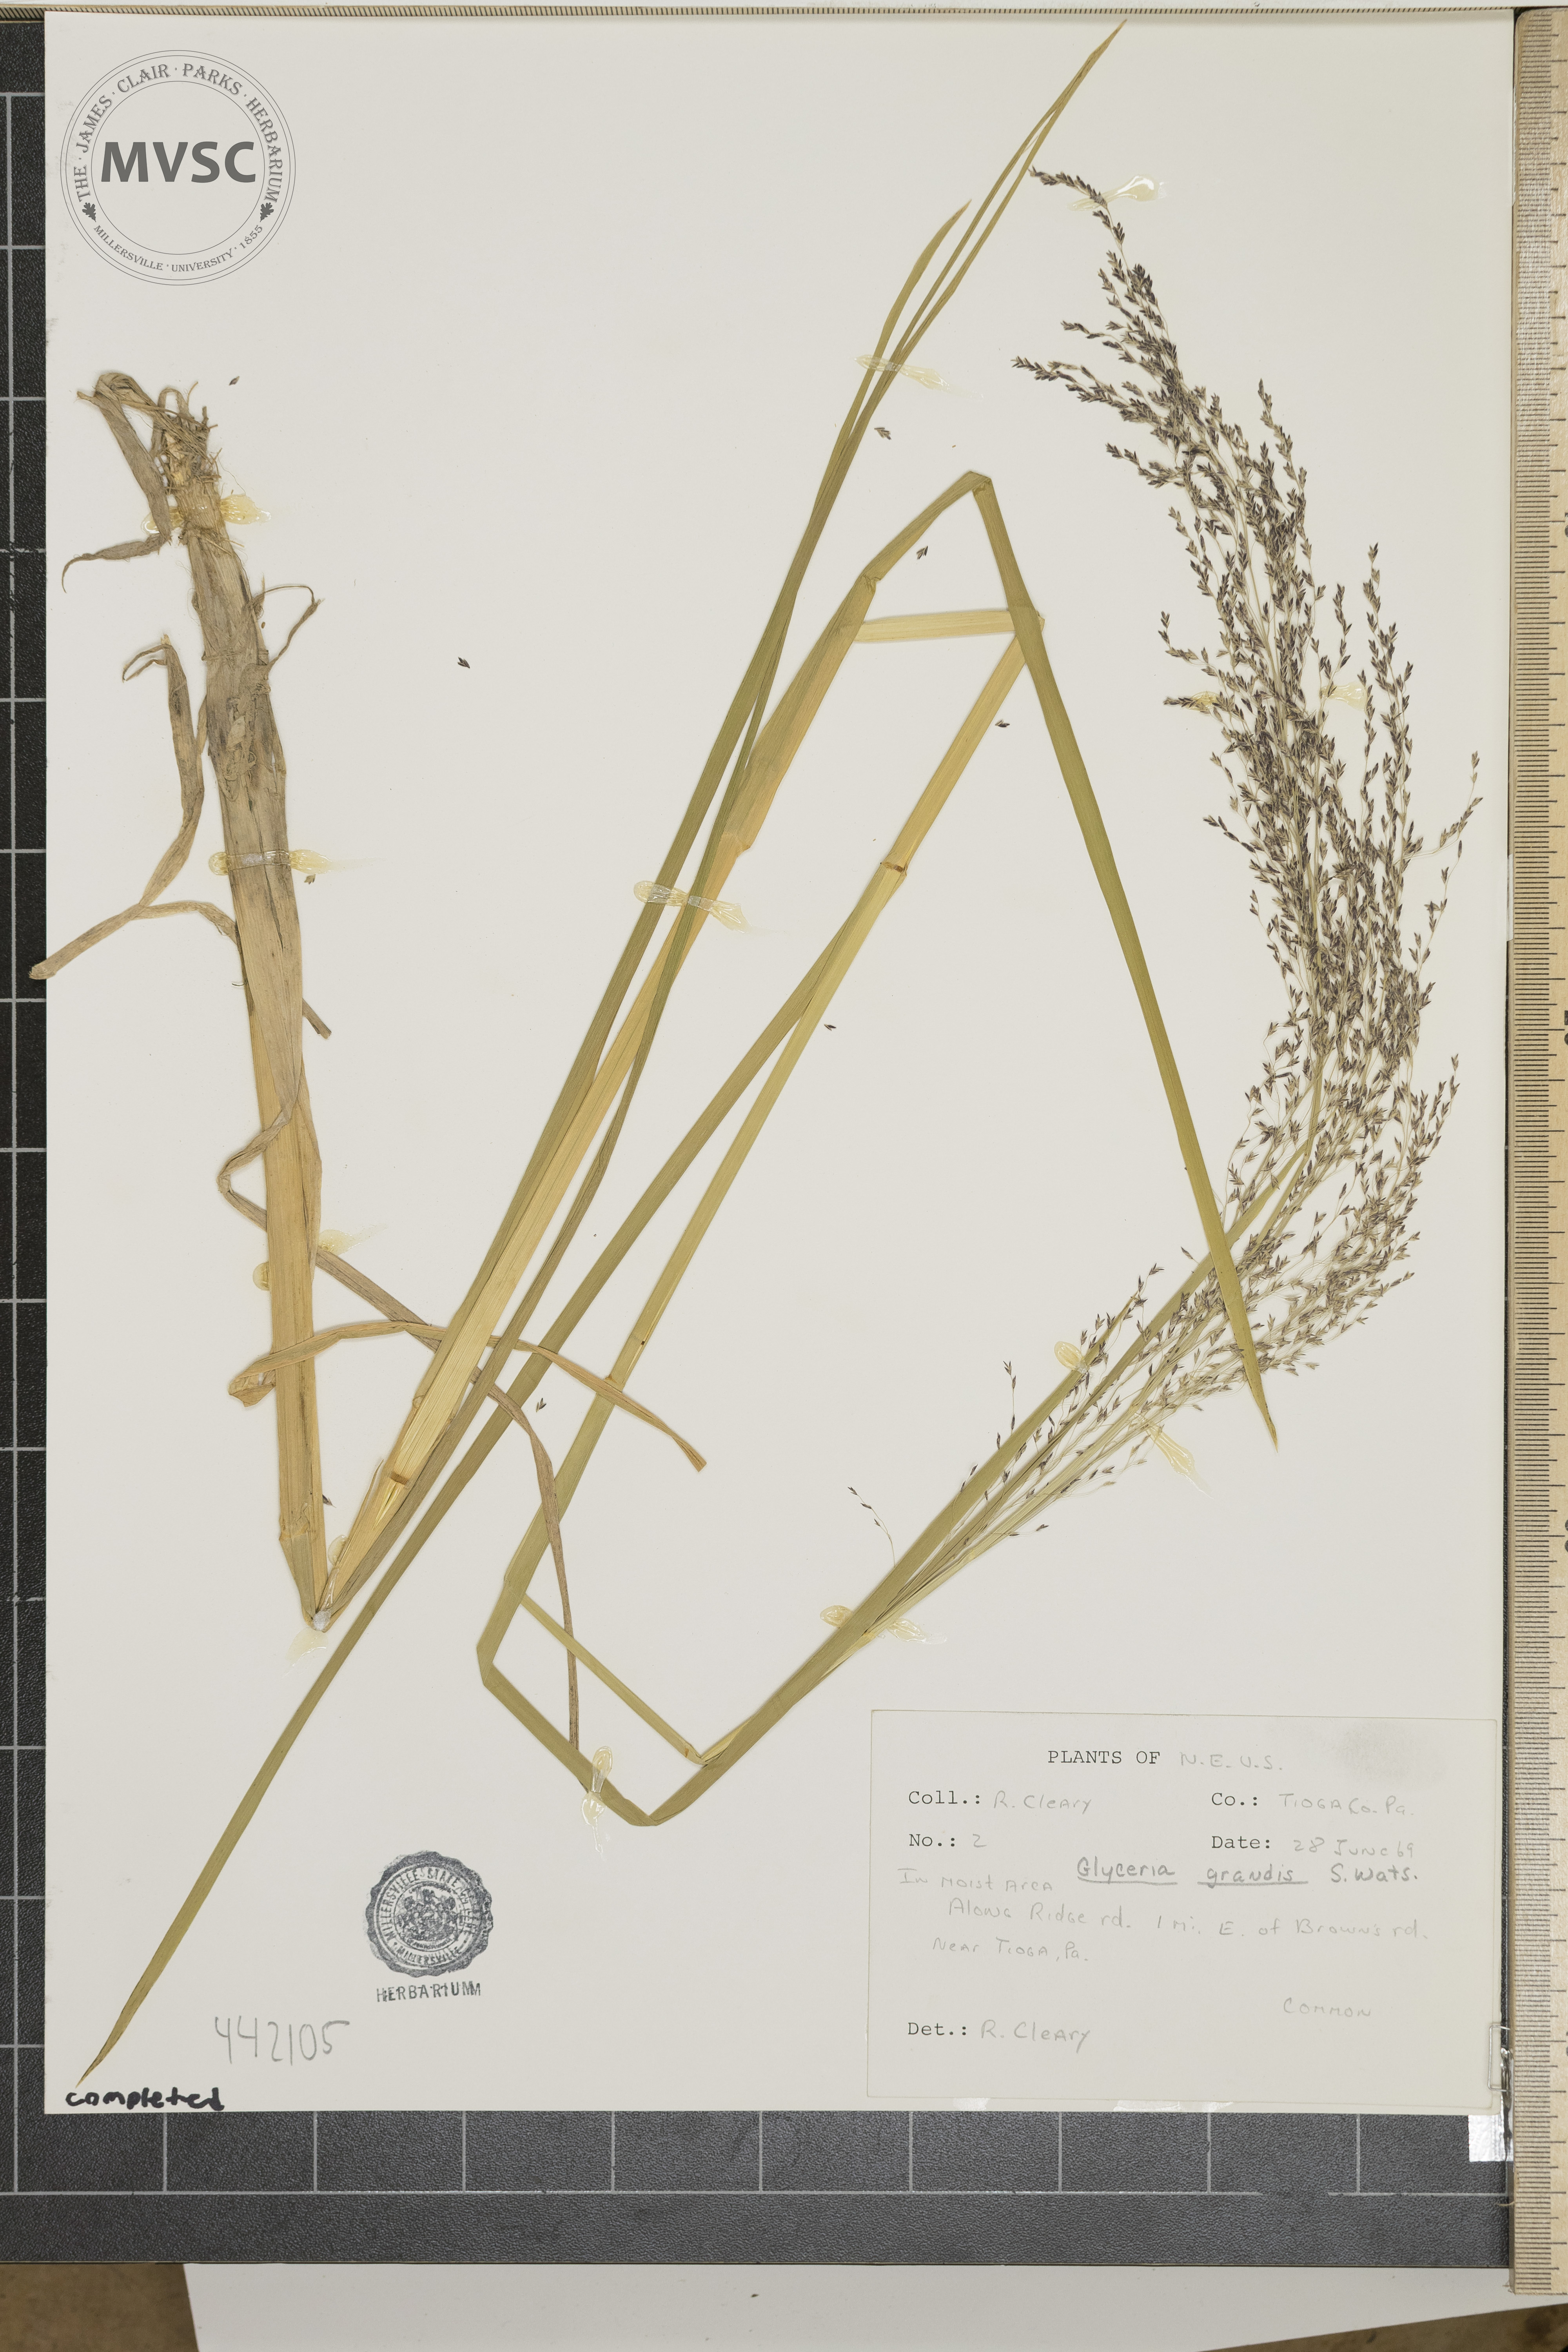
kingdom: Plantae
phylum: Tracheophyta
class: Liliopsida
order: Poales
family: Poaceae
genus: Glyceria
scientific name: Glyceria grandis
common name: American glyceria
